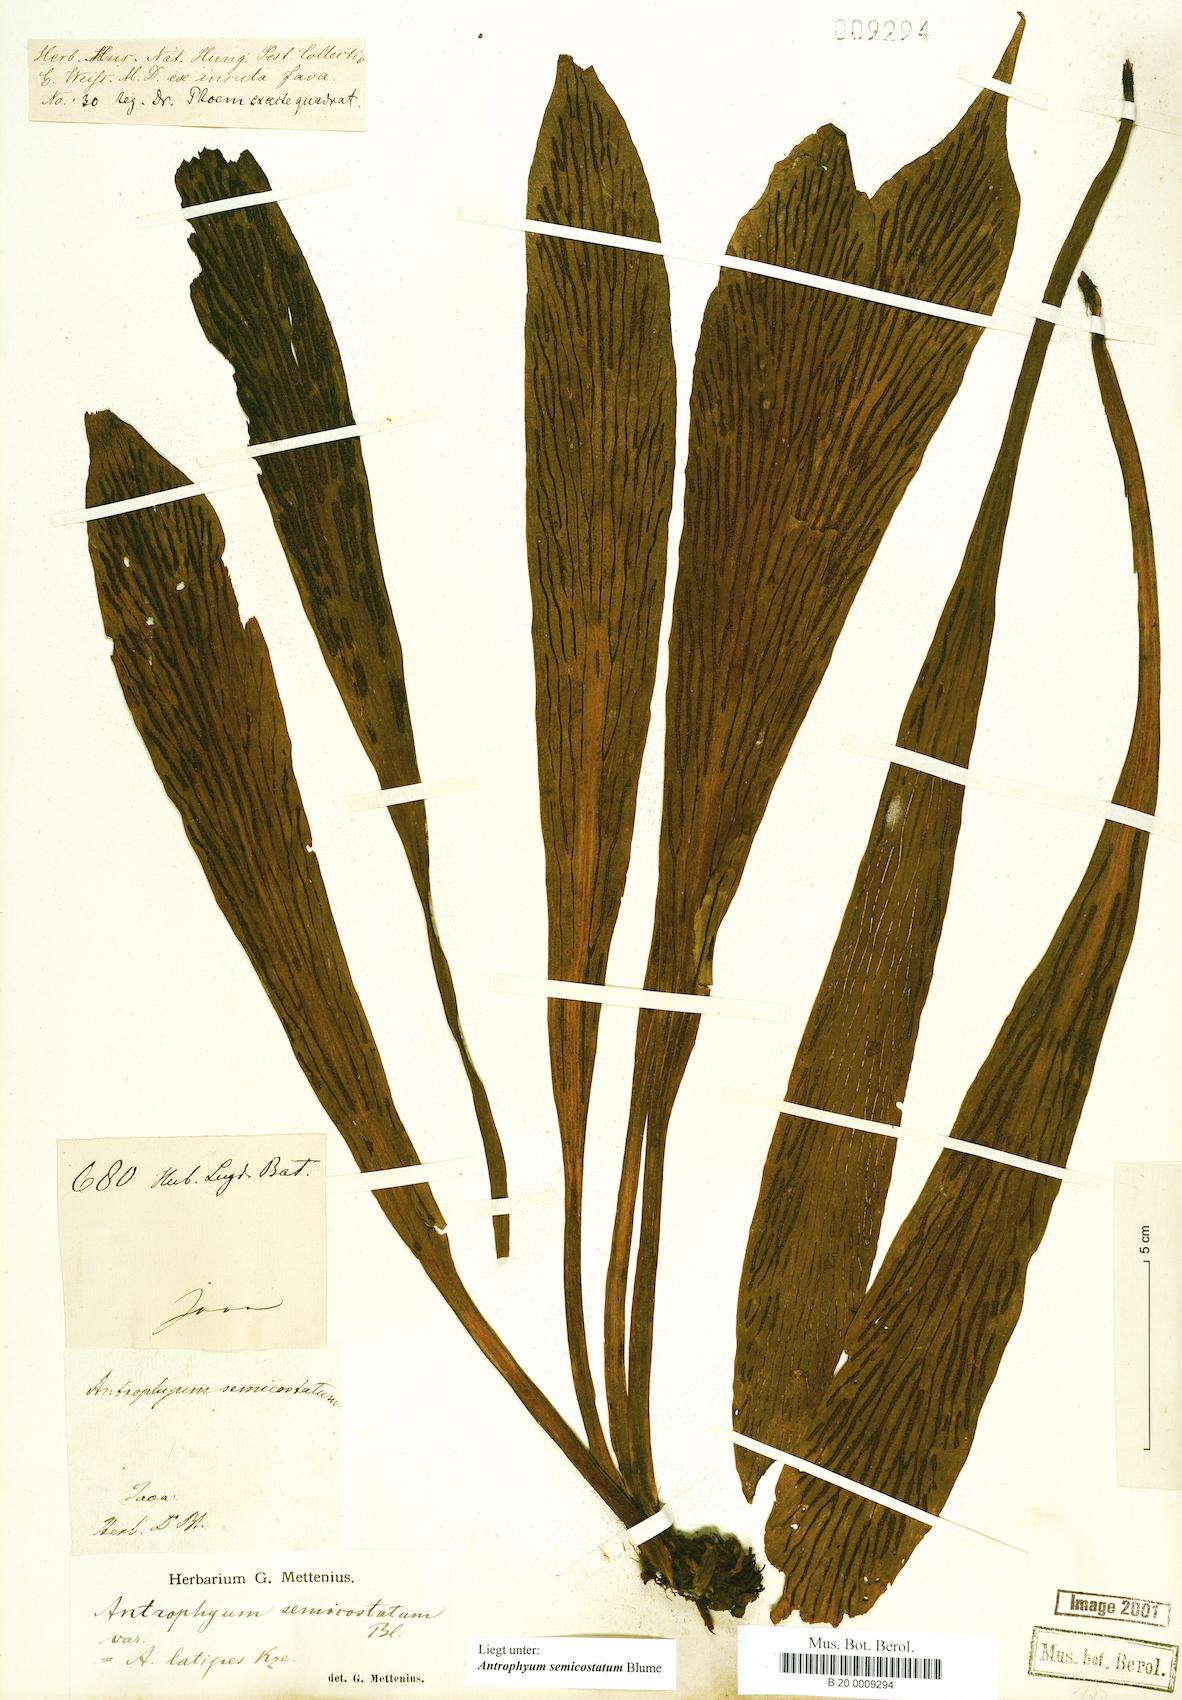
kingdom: Plantae
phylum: Tracheophyta
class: Polypodiopsida
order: Polypodiales
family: Pteridaceae
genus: Antrophyum
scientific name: Antrophyum semicostatum
